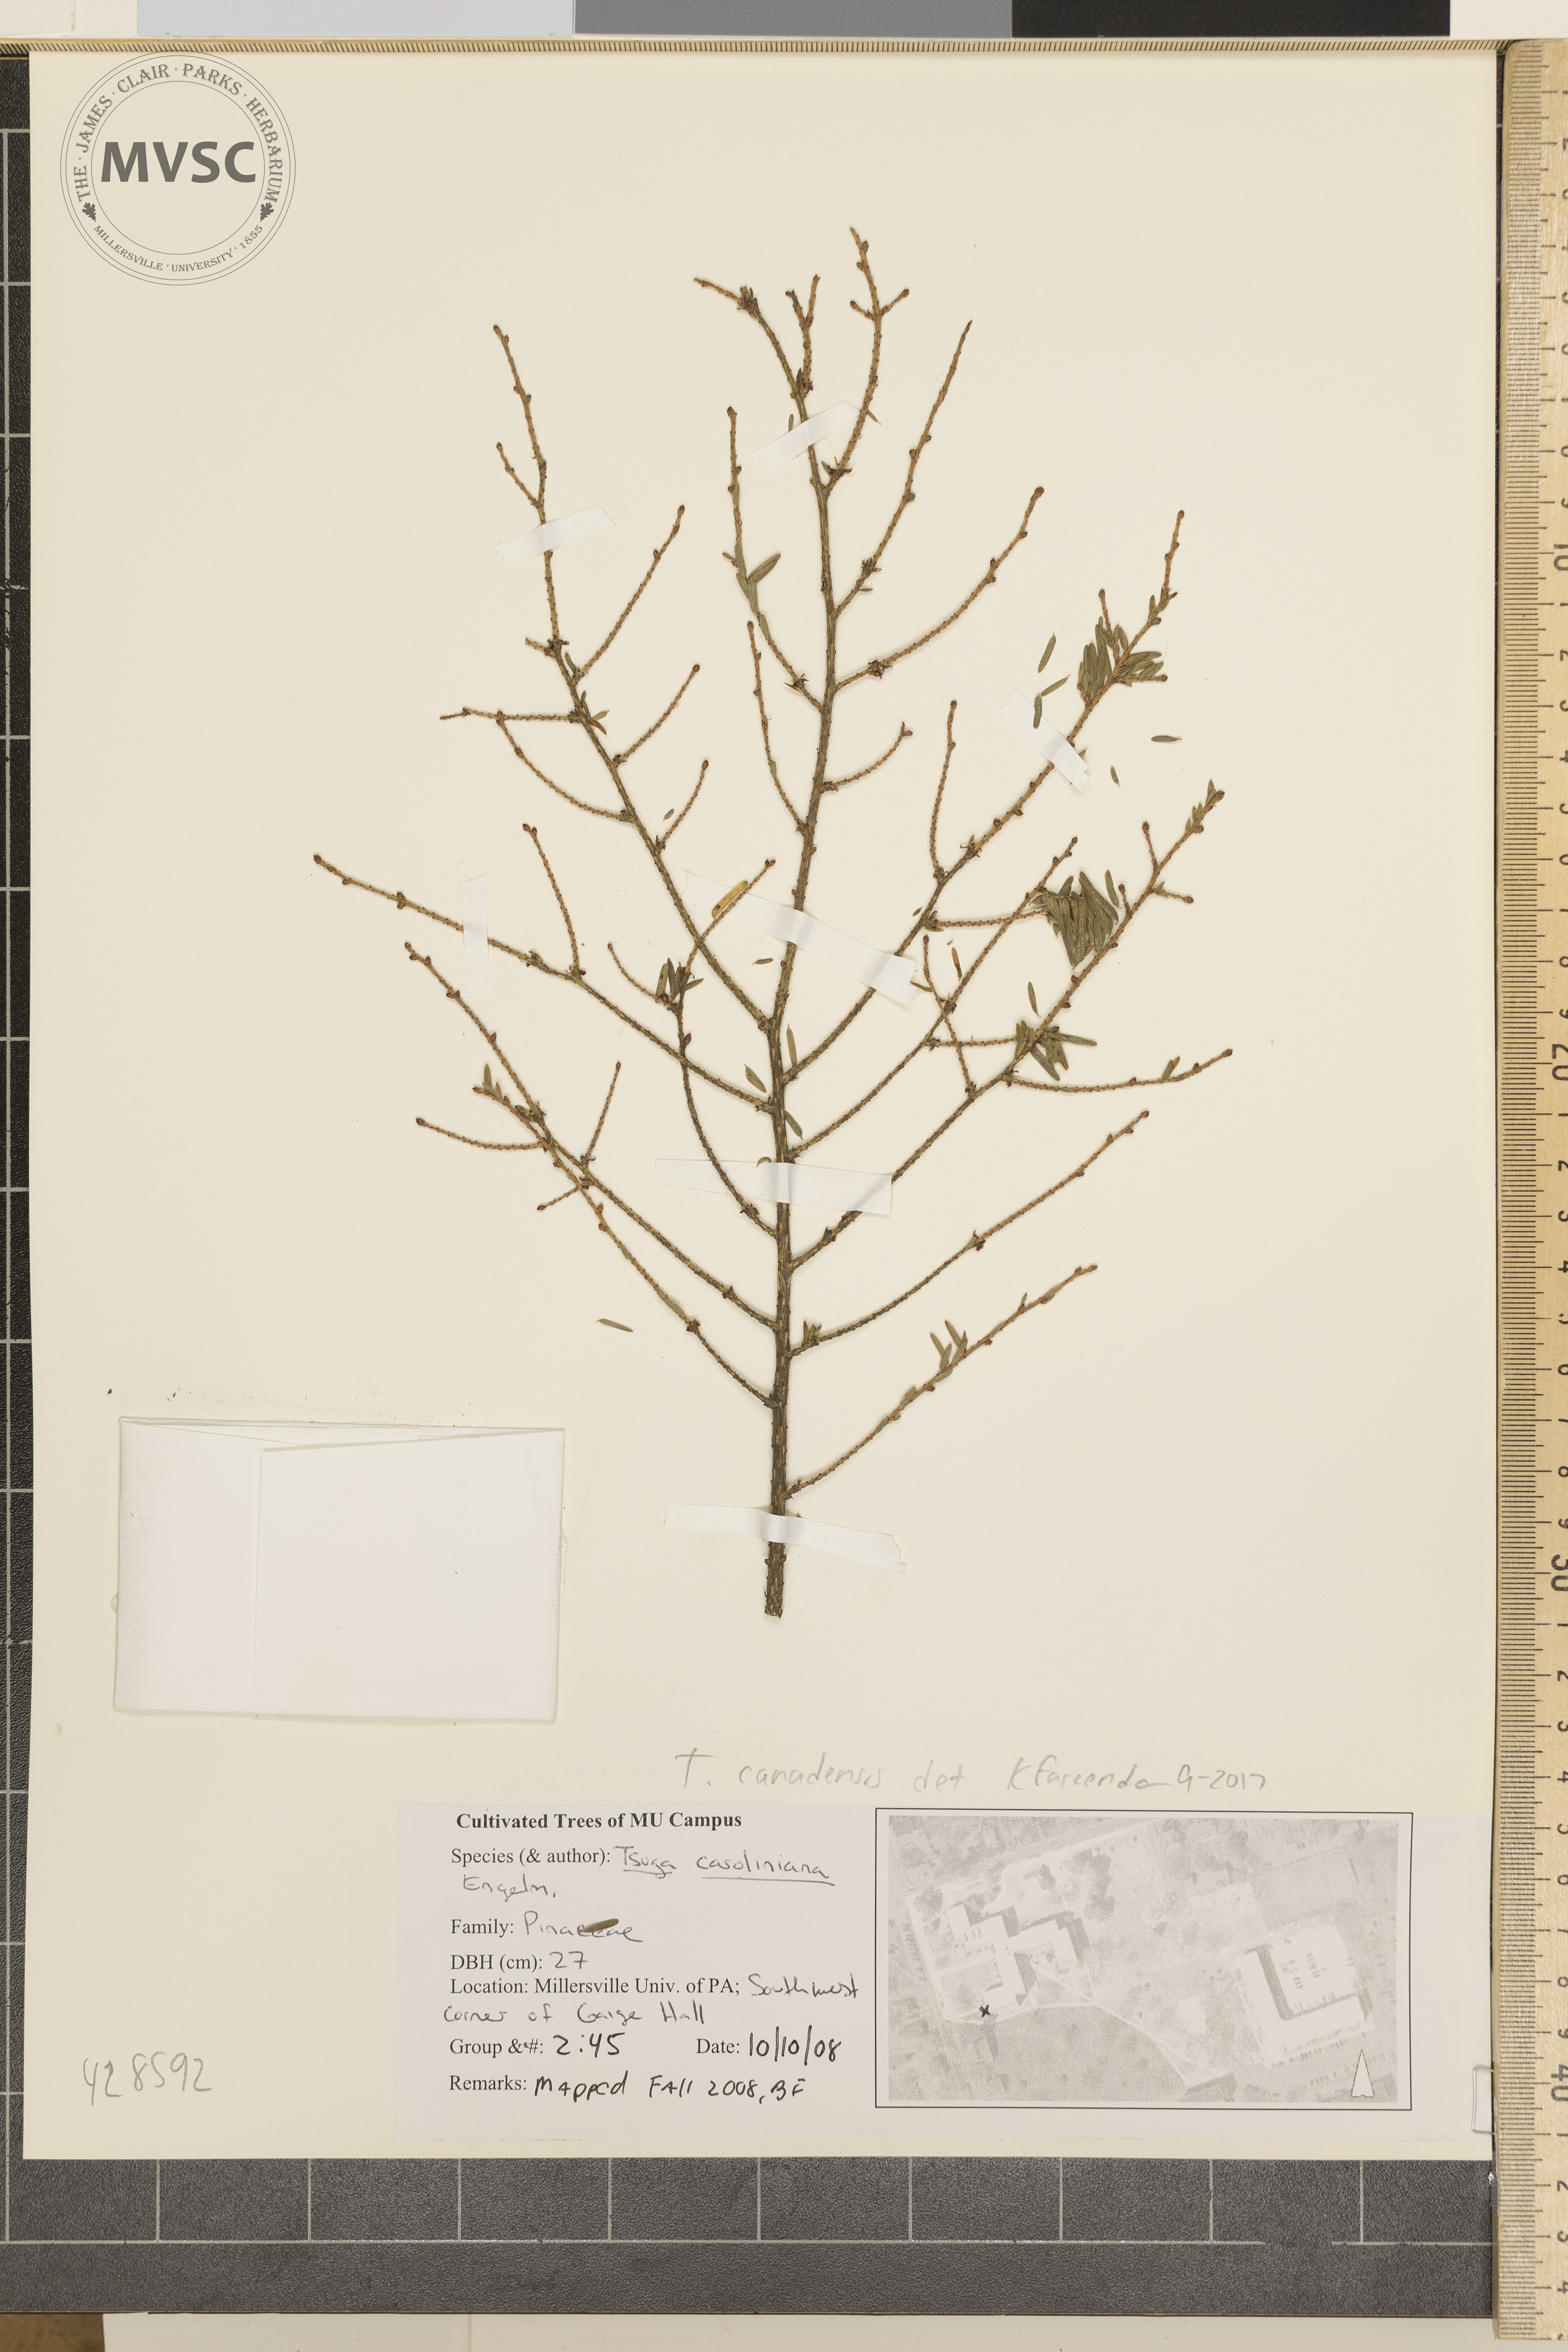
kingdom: Plantae
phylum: Tracheophyta
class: Pinopsida
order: Pinales
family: Pinaceae
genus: Tsuga
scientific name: Tsuga canadensis
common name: Eastern hemlock
